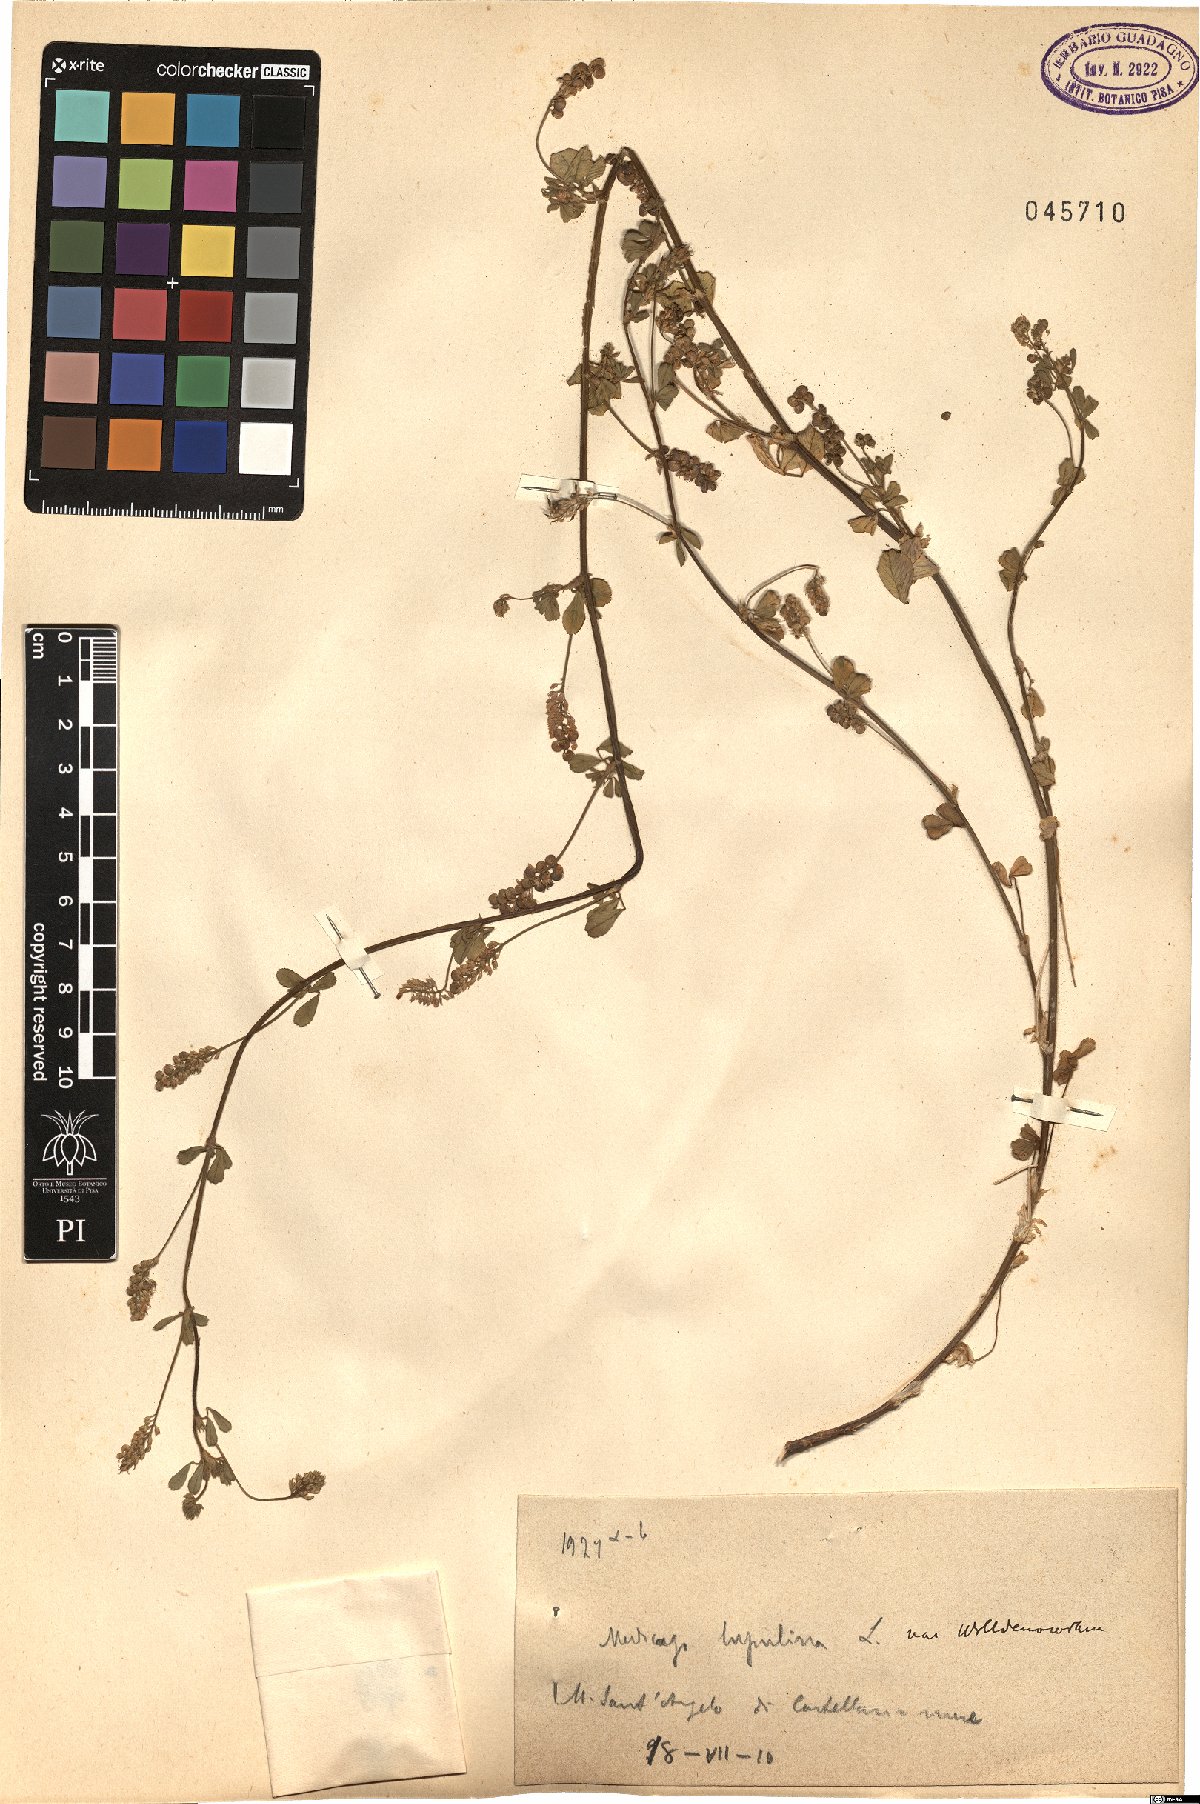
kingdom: Plantae
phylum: Tracheophyta
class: Magnoliopsida
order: Fabales
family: Fabaceae
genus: Medicago
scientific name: Medicago lupulina
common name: Black medick
